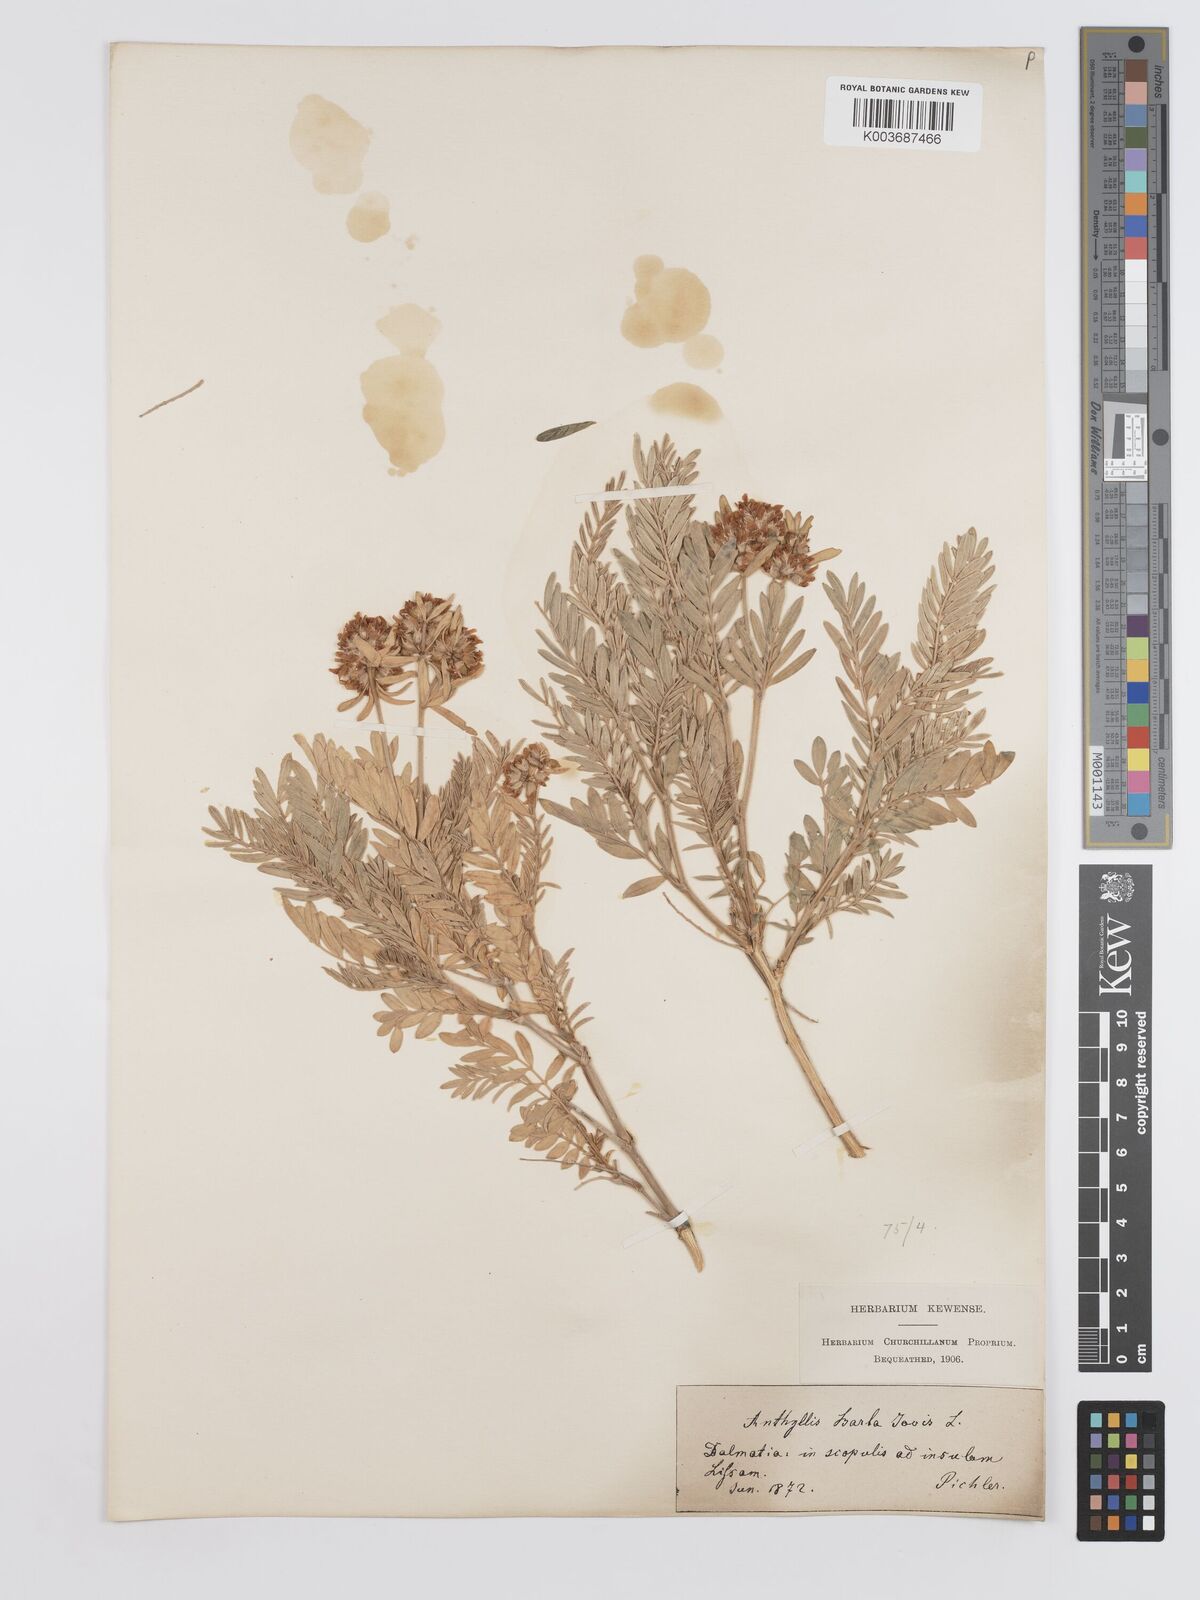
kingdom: Plantae
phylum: Tracheophyta
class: Magnoliopsida
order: Fabales
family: Fabaceae
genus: Anthyllis
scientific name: Anthyllis barba-jovis
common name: Jupiter's-beard
